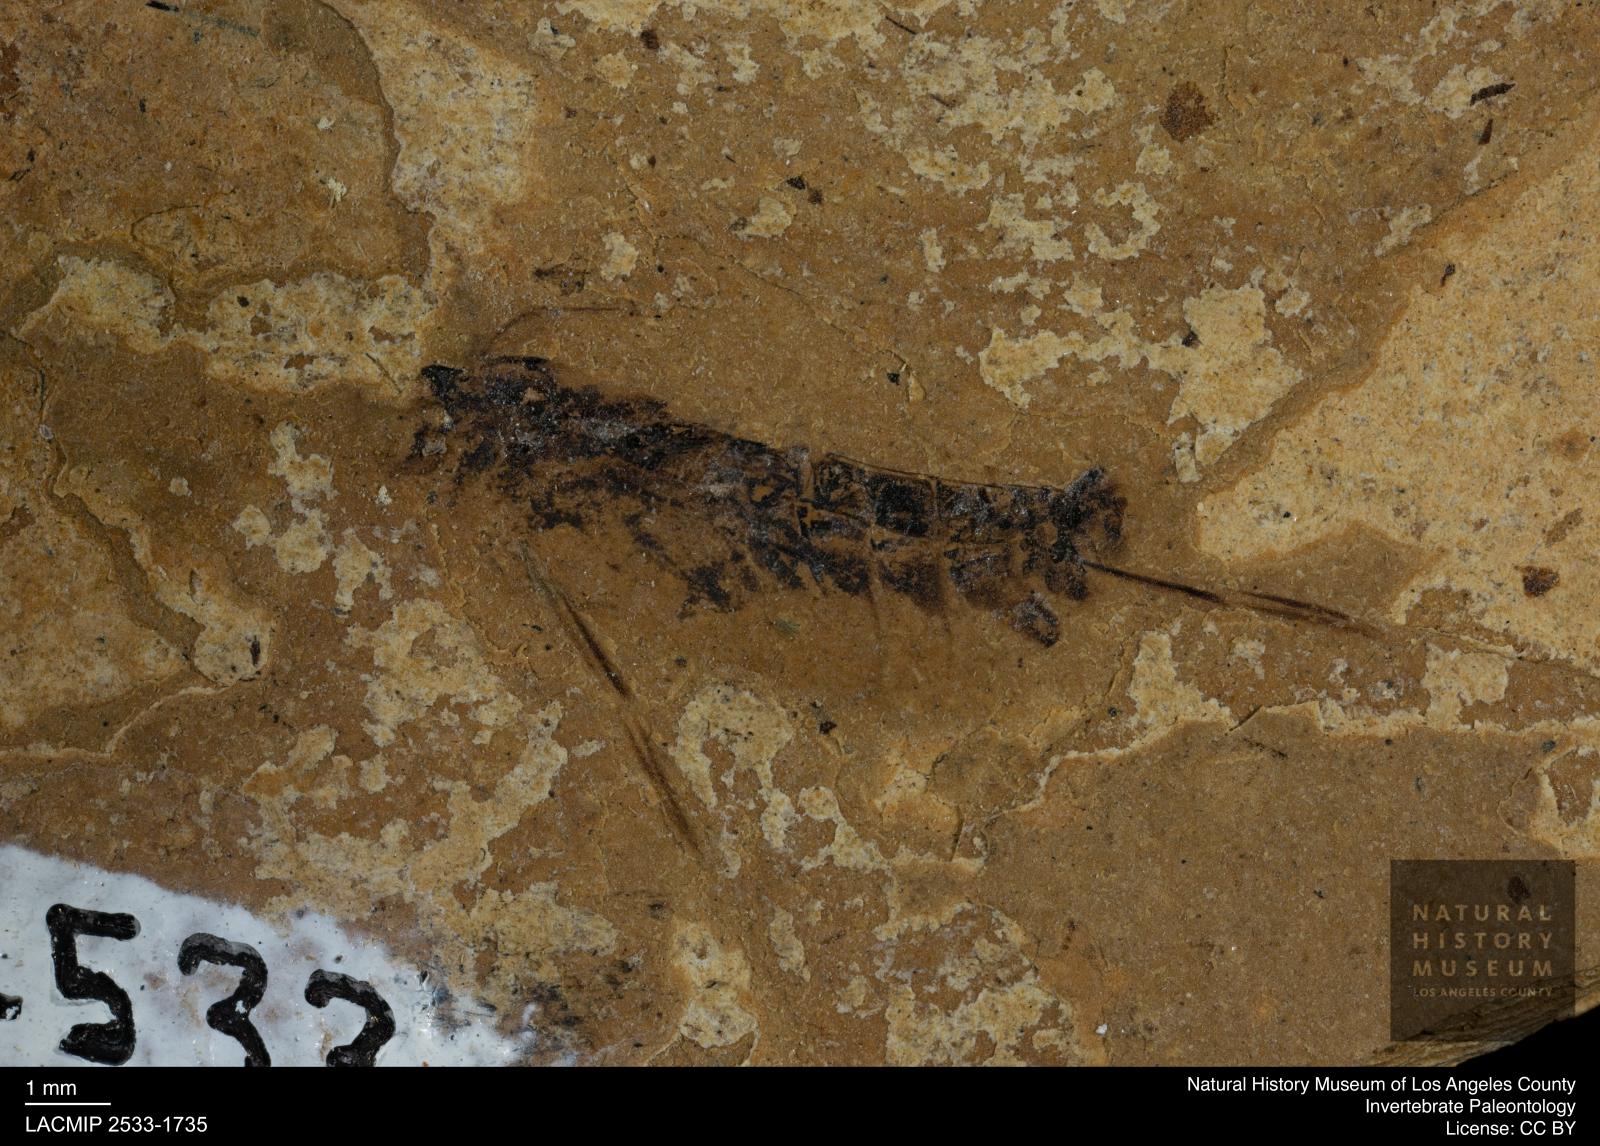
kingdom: Animalia
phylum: Arthropoda
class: Insecta
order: Hemiptera
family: Notonectidae
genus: Notonecta
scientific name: Notonecta
